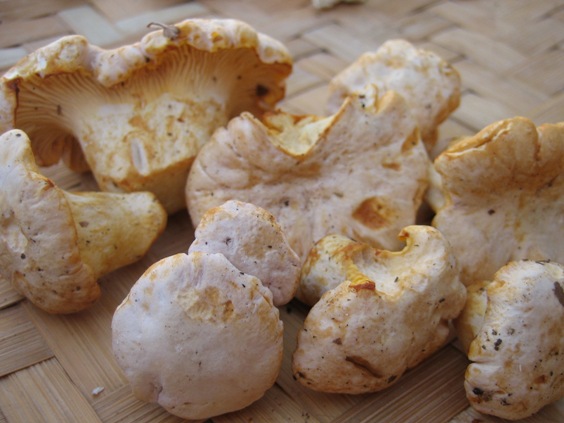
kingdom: Fungi
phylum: Basidiomycota
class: Agaricomycetes
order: Cantharellales
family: Hydnaceae
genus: Cantharellus
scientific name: Cantharellus pallens
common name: bleg kantarel
